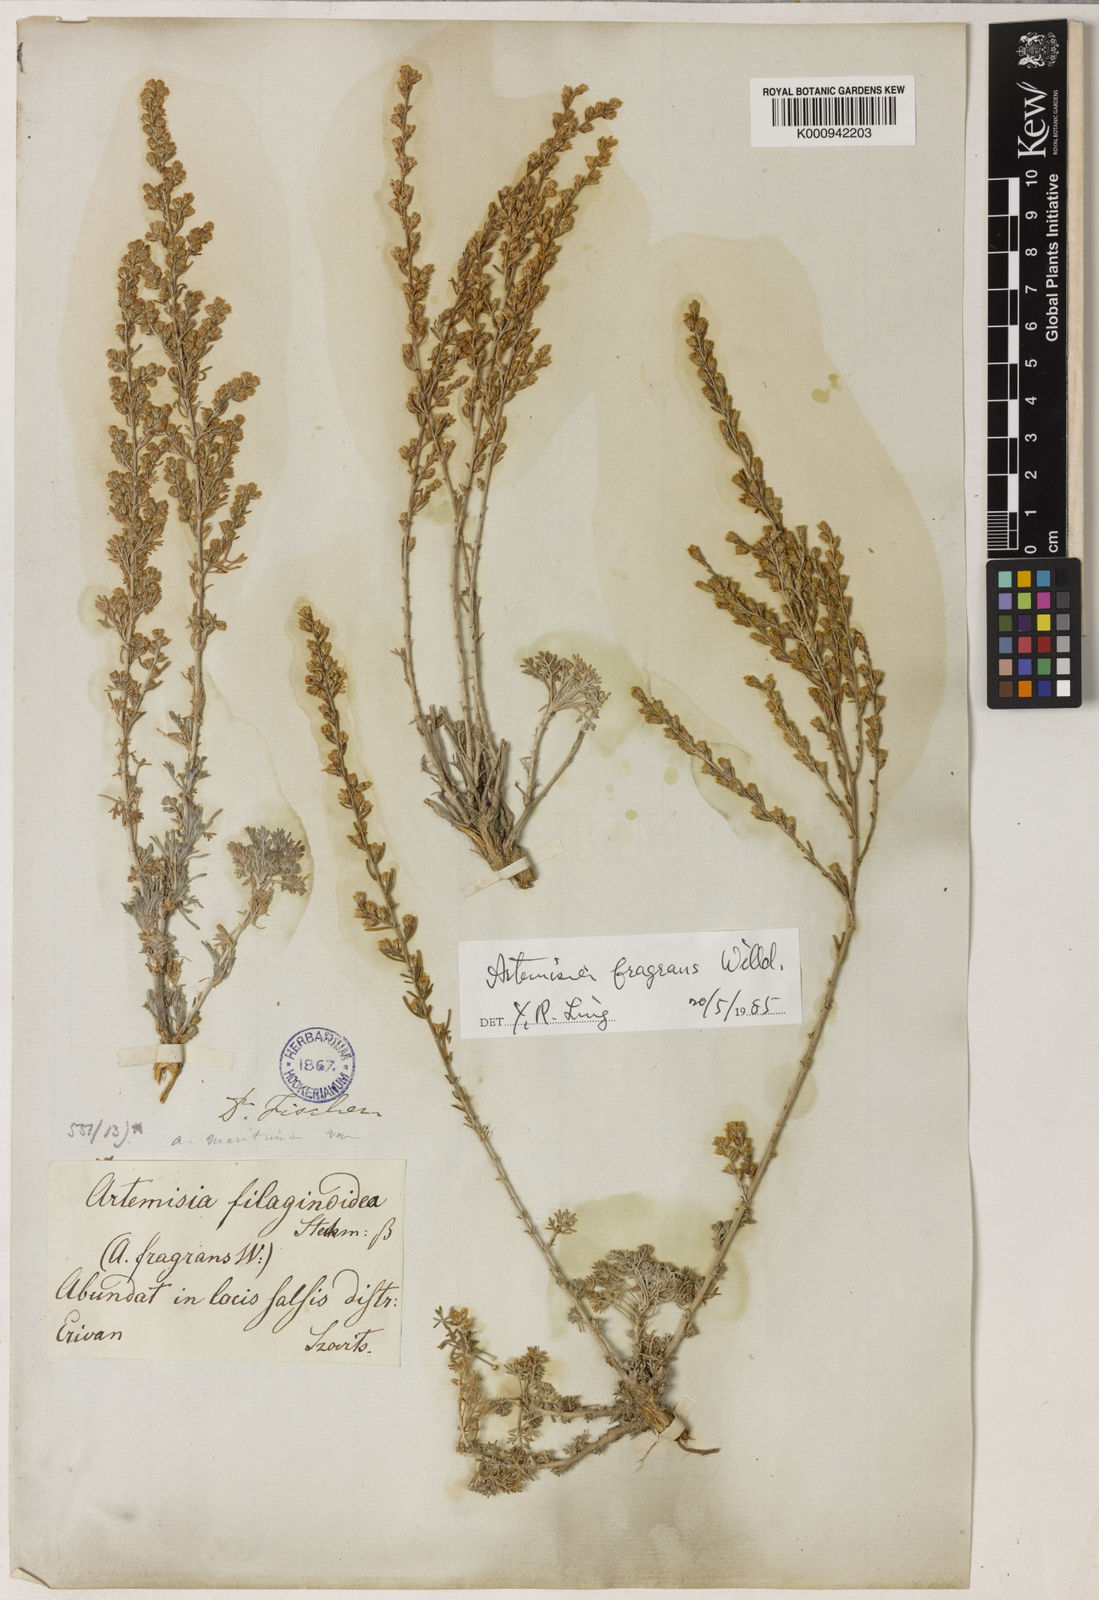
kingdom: Plantae
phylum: Tracheophyta
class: Magnoliopsida
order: Asterales
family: Asteraceae
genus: Artemisia
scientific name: Artemisia fragrans
